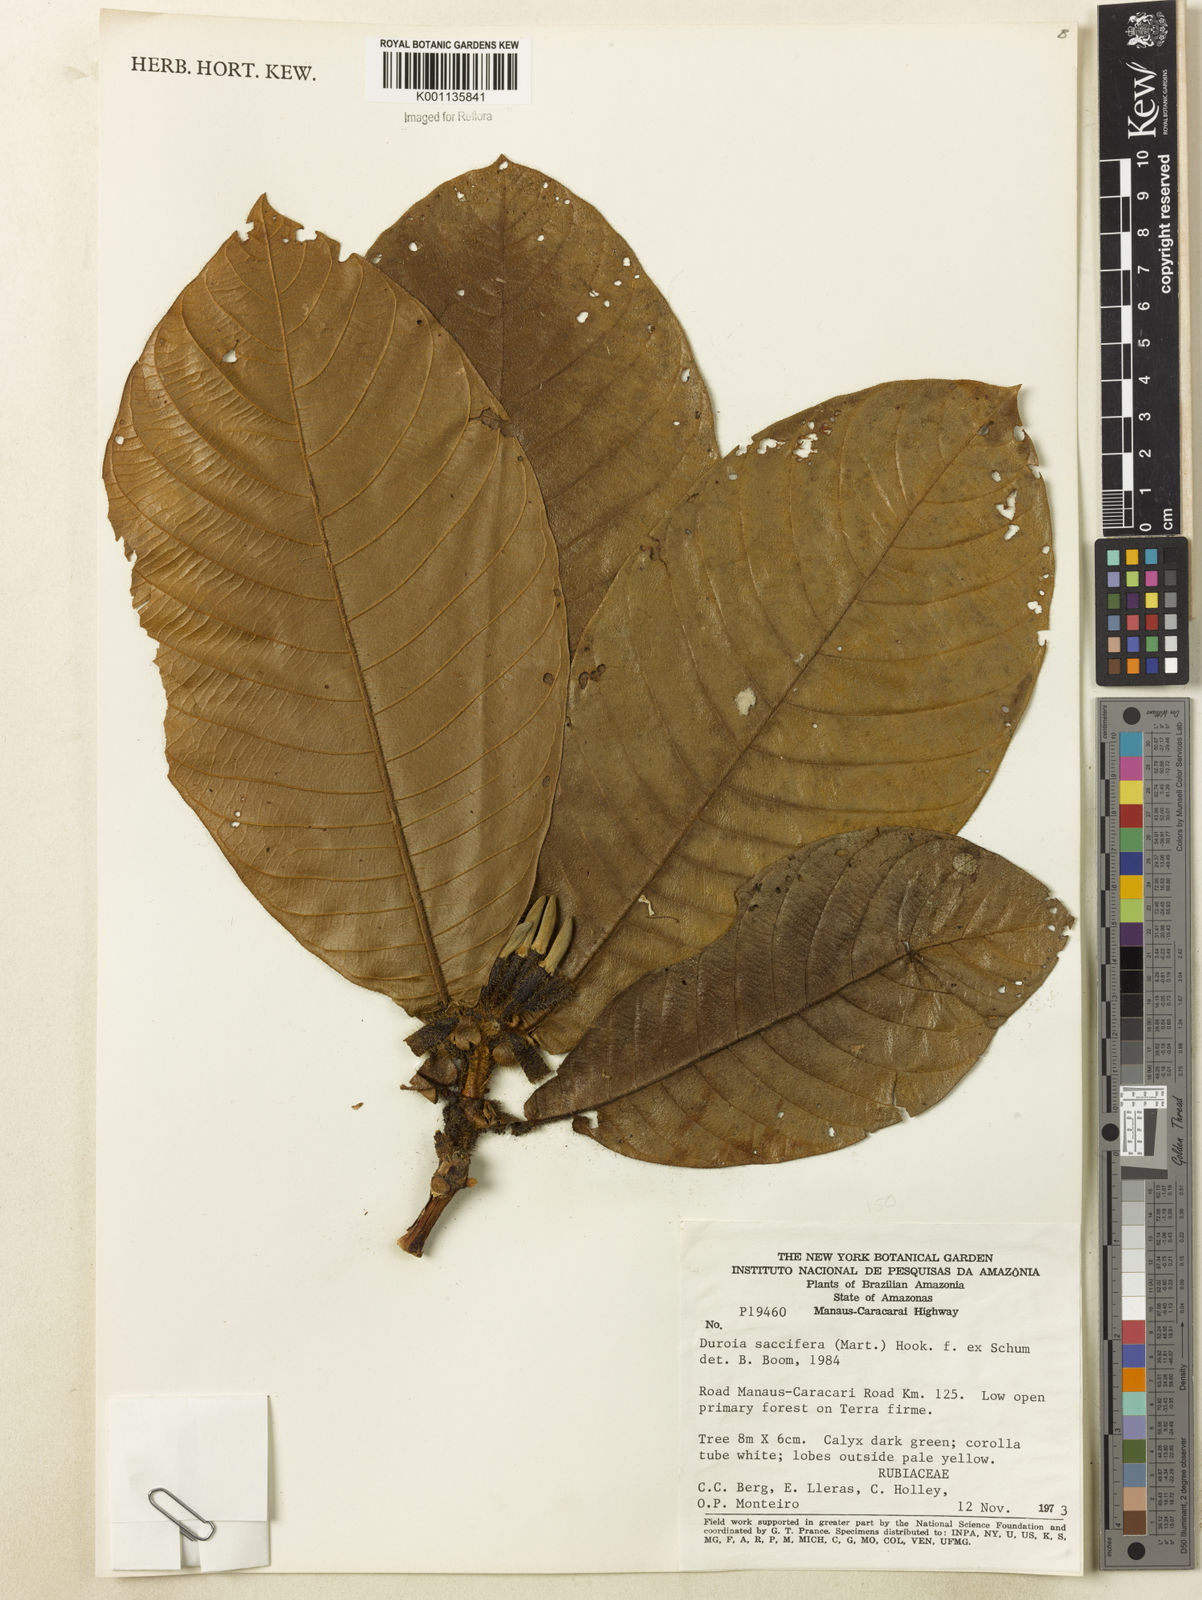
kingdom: Plantae
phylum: Tracheophyta
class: Magnoliopsida
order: Gentianales
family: Rubiaceae
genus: Duroia
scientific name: Duroia saccifera
